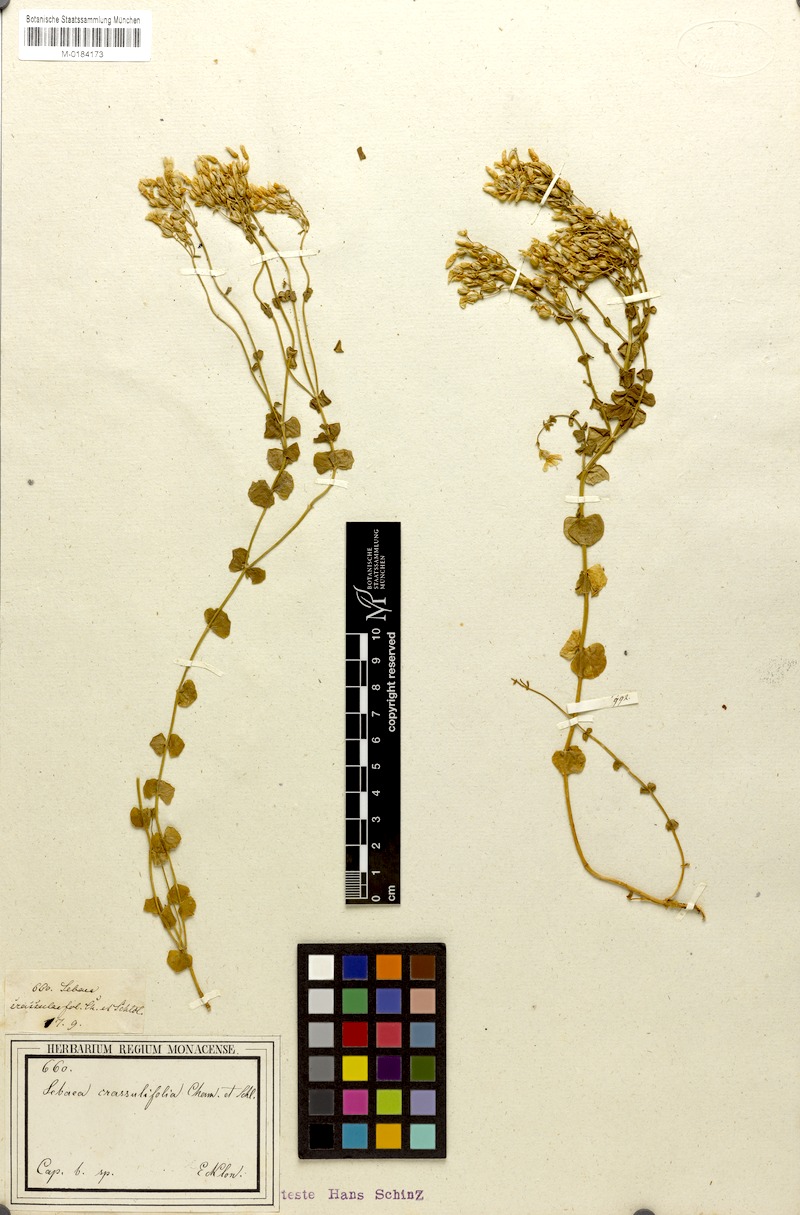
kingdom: Plantae
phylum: Tracheophyta
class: Magnoliopsida
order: Gentianales
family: Gentianaceae
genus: Sebaea
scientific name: Sebaea crassulifolia
